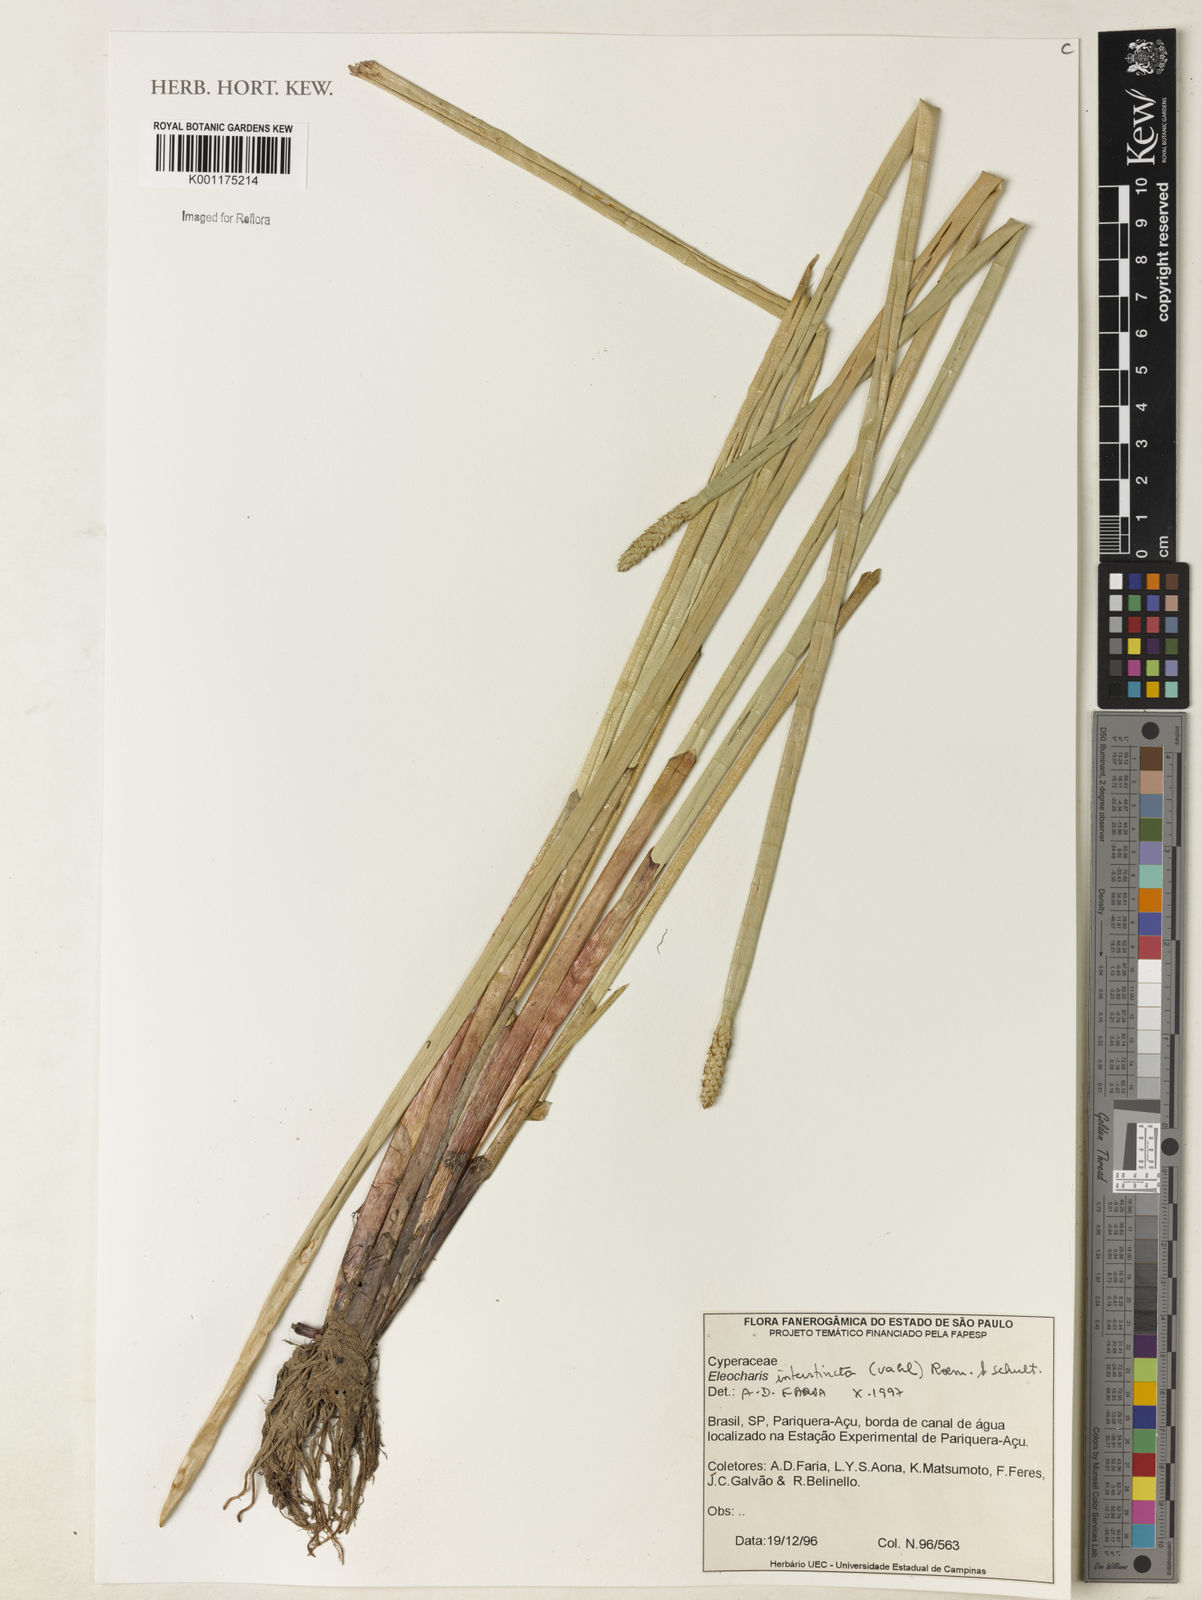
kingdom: Plantae
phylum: Tracheophyta
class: Liliopsida
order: Poales
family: Cyperaceae
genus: Eleocharis
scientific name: Eleocharis interstincta
